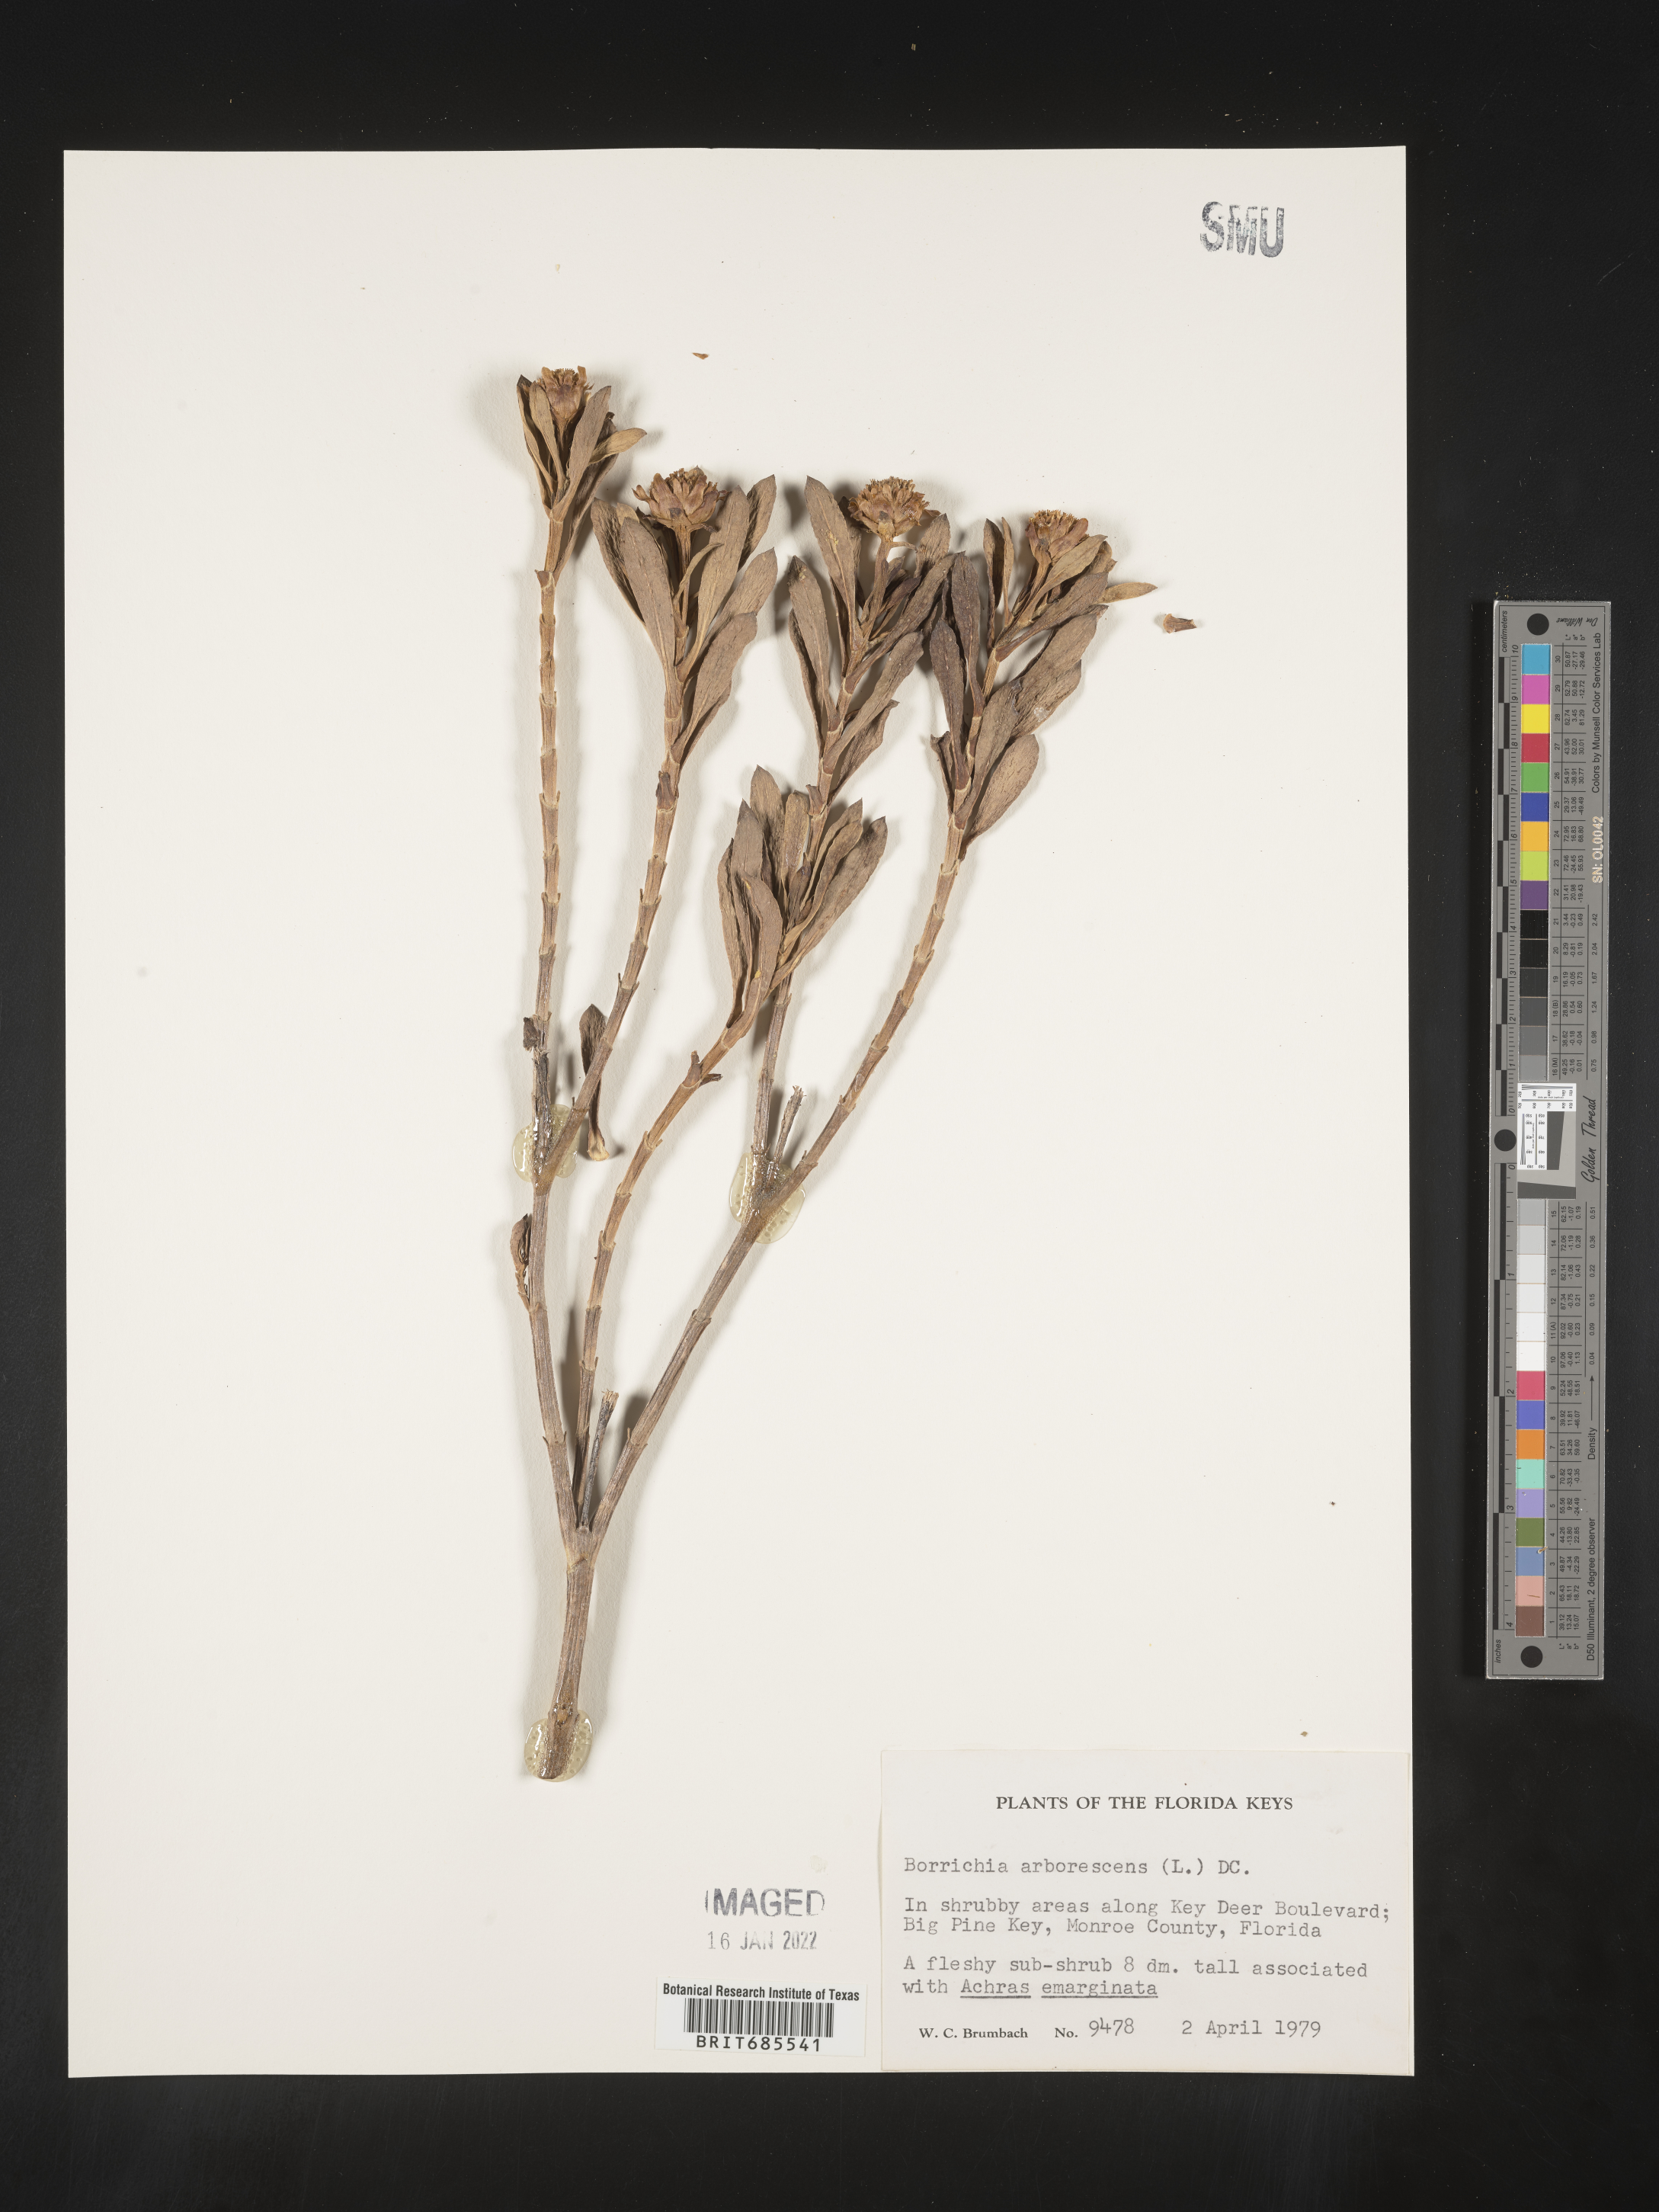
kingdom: Plantae
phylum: Tracheophyta
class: Magnoliopsida
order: Asterales
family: Asteraceae
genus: Borrichia
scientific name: Borrichia arborescens
